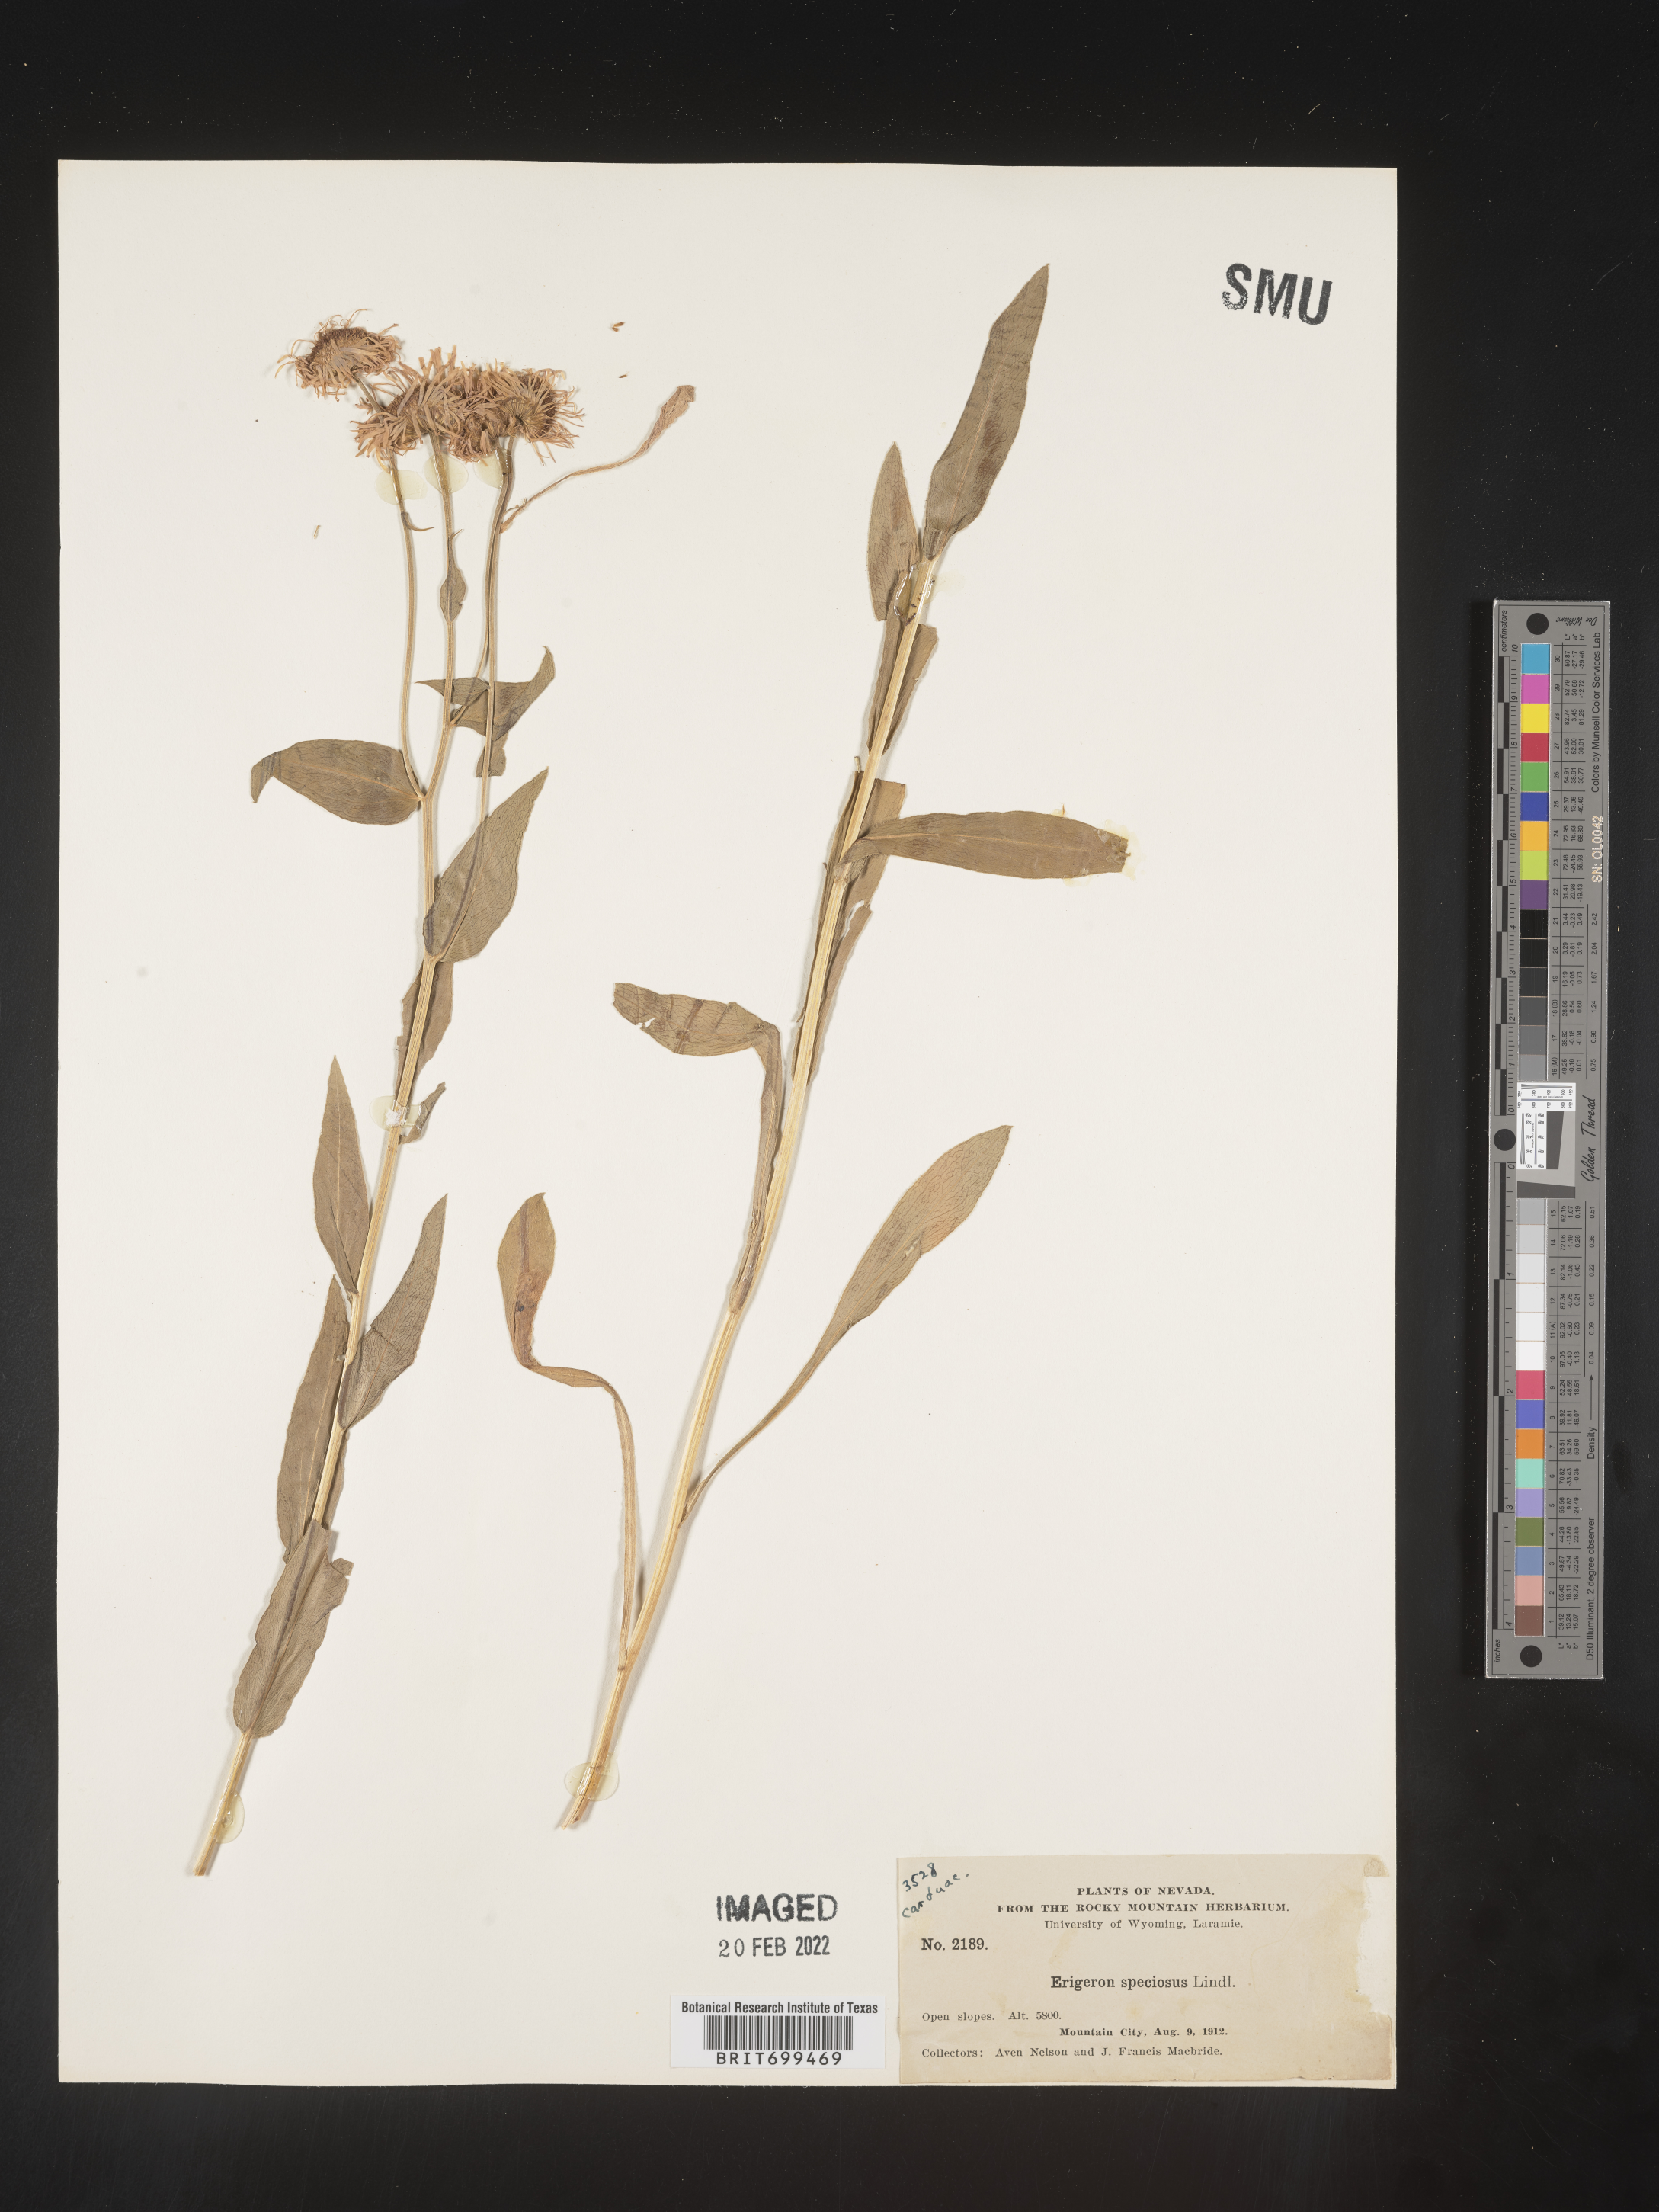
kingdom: Plantae
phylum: Tracheophyta
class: Magnoliopsida
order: Asterales
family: Asteraceae
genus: Erigeron
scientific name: Erigeron speciosus
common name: Aspen fleabane
